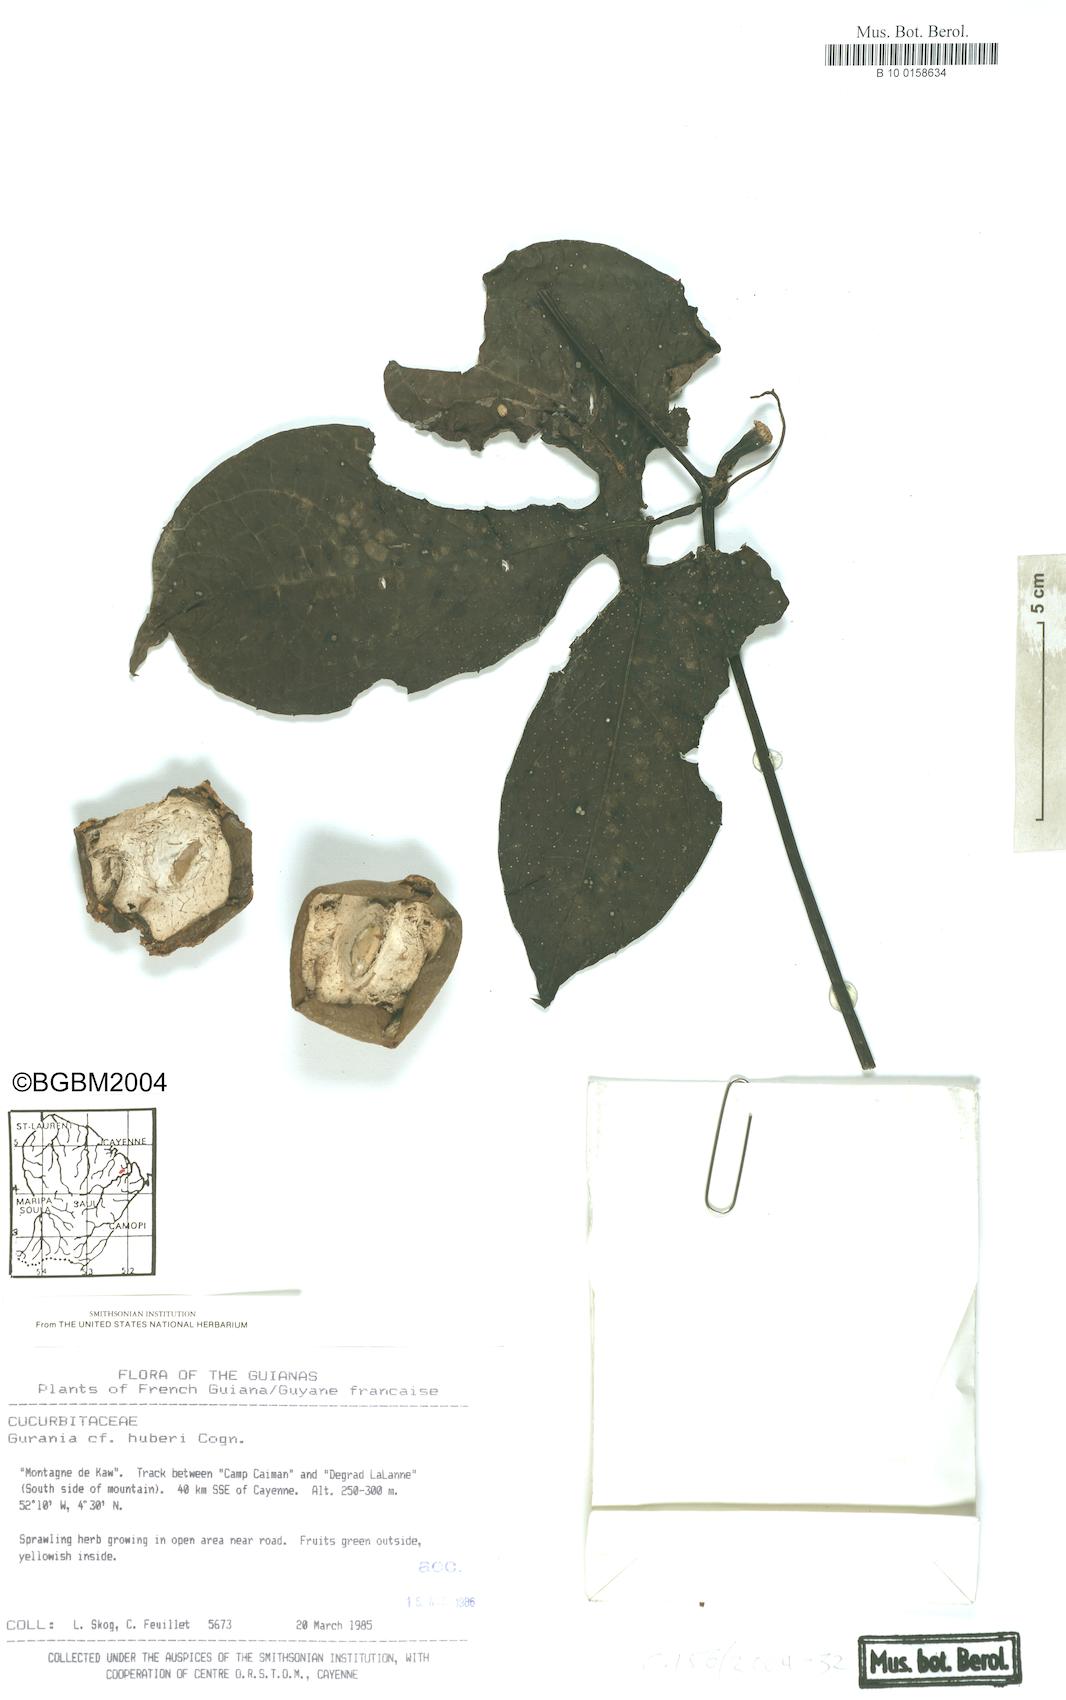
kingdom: Plantae
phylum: Tracheophyta
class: Magnoliopsida
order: Cucurbitales
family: Cucurbitaceae
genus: Cayaponia
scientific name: Cayaponia
